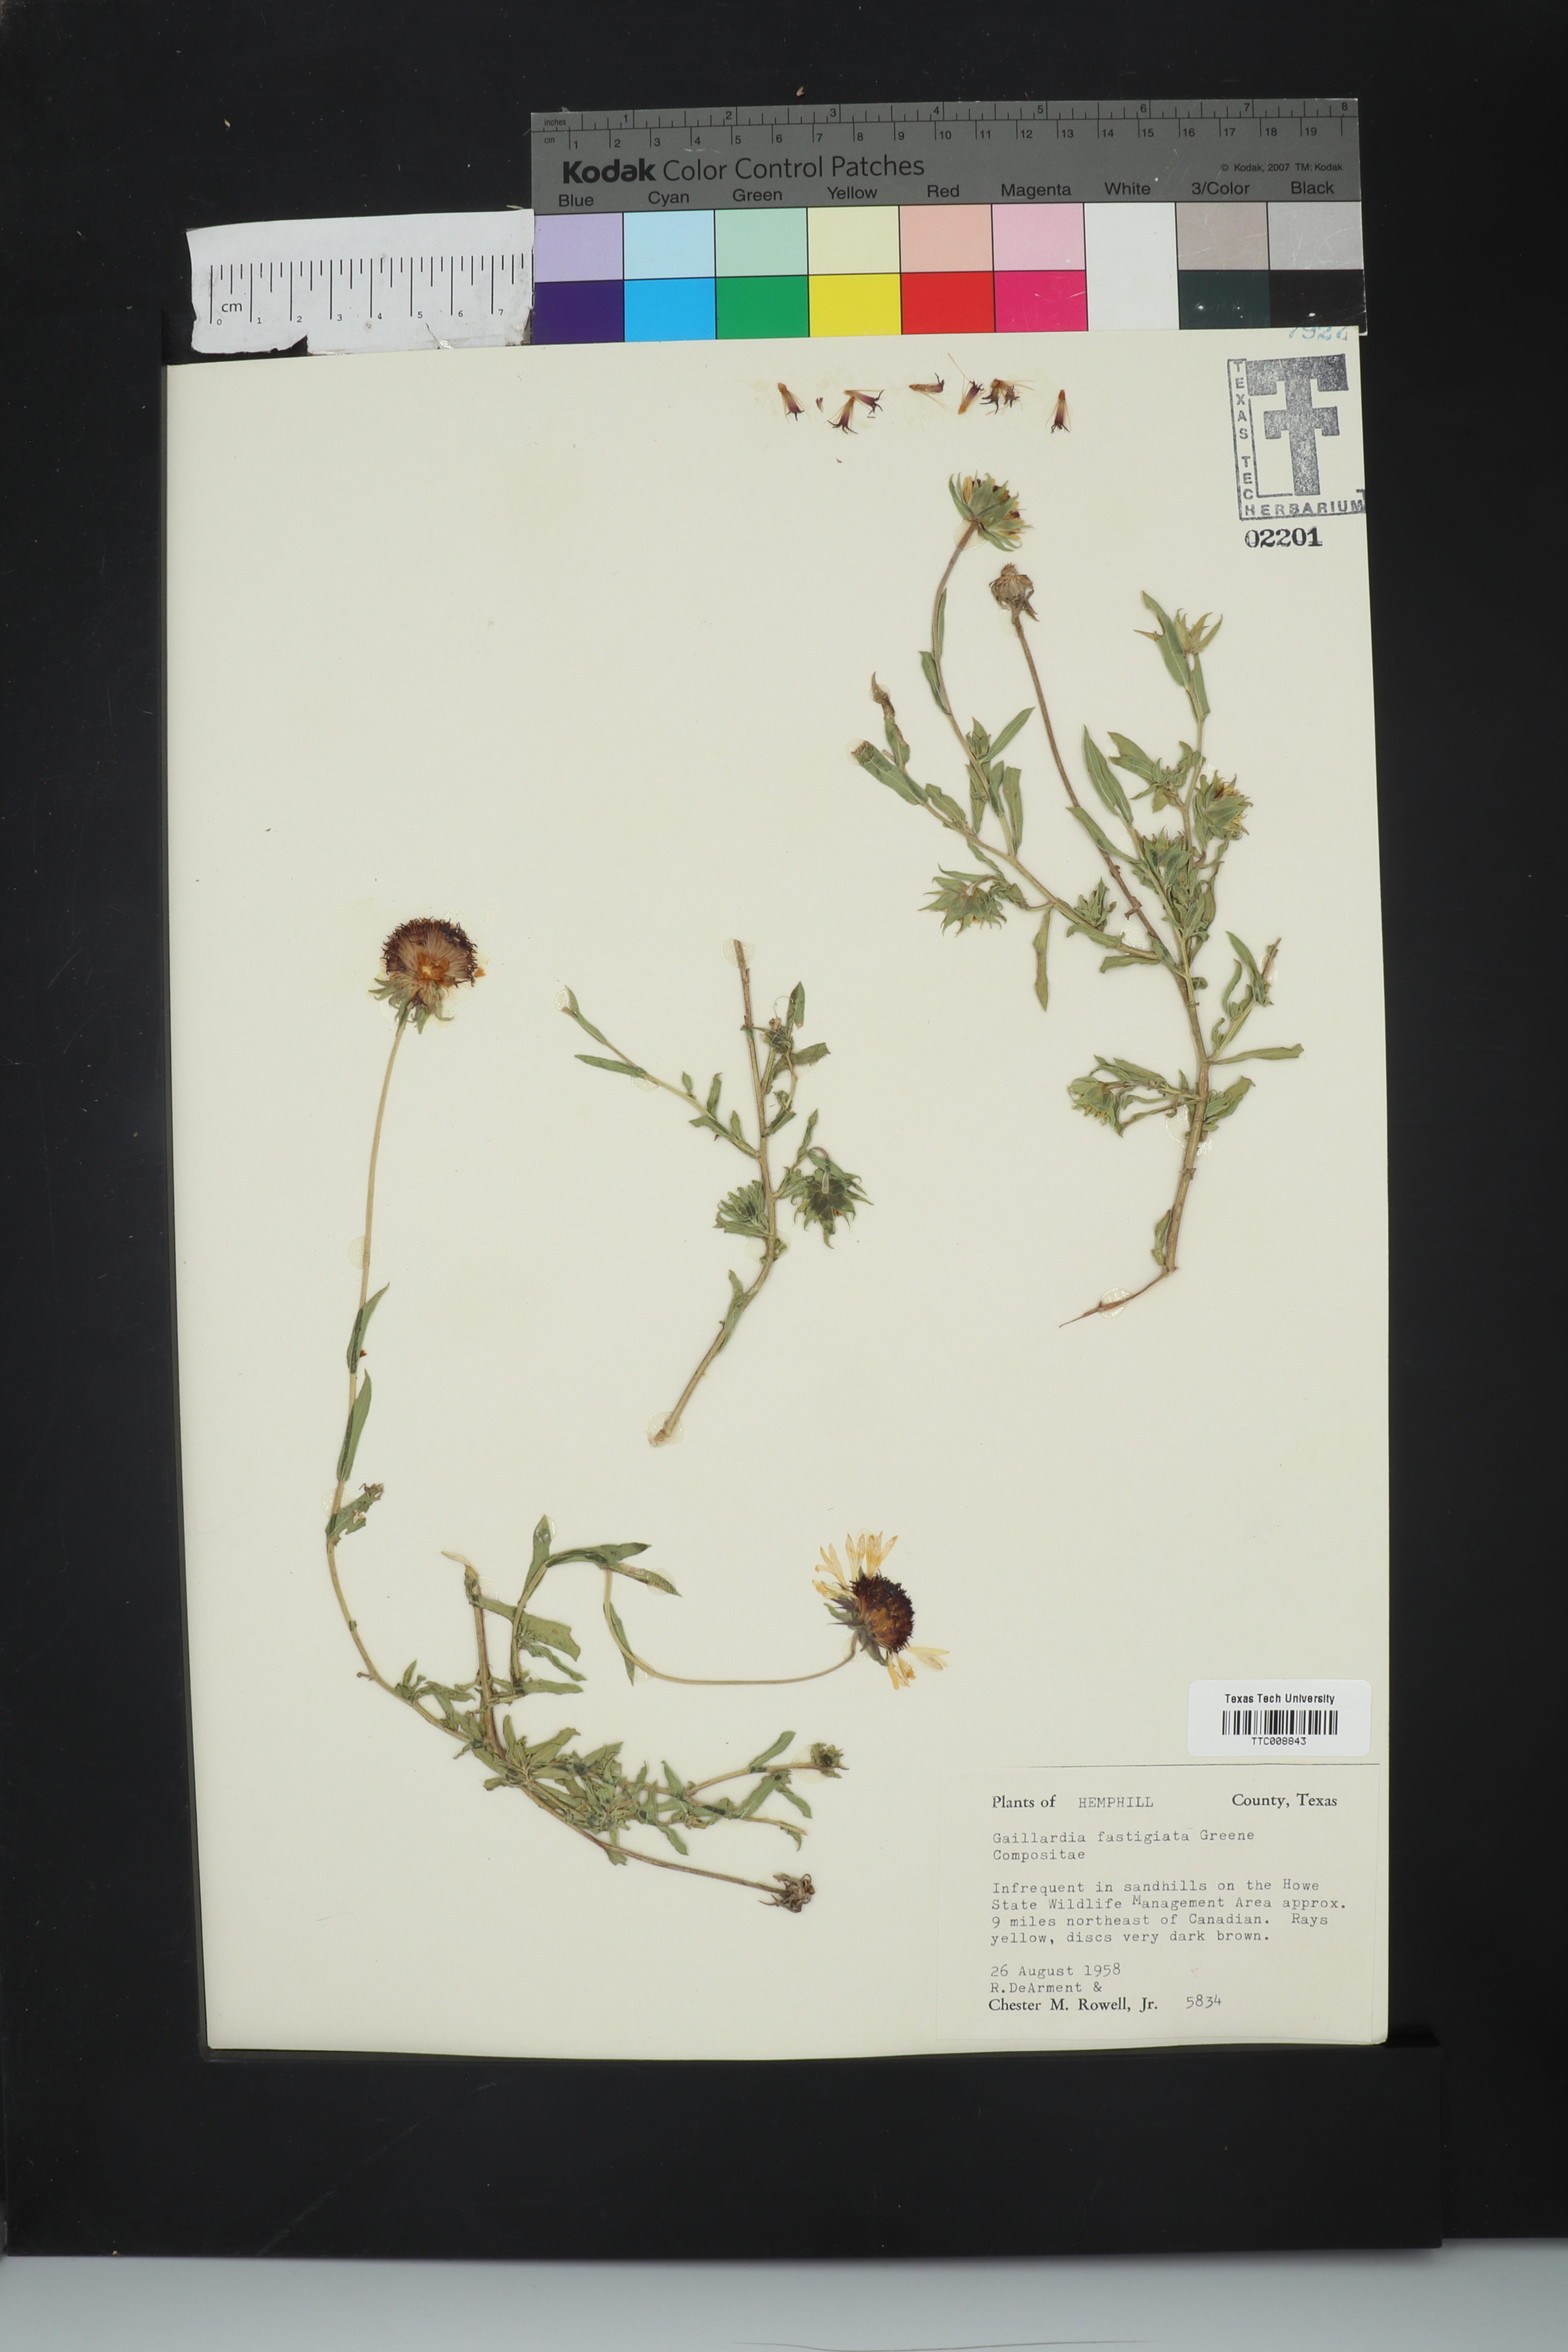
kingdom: Plantae
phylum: Tracheophyta
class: Magnoliopsida
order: Asterales
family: Asteraceae
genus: Gaillardia
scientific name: Gaillardia aestivalis
